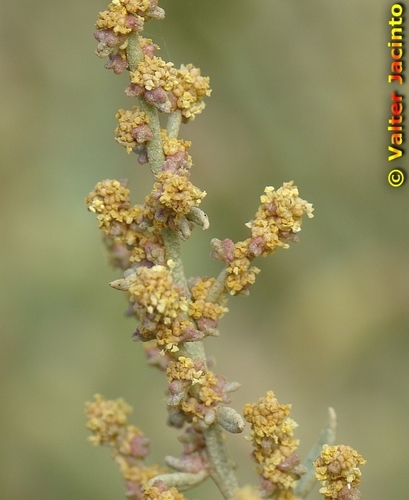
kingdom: Plantae
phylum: Tracheophyta
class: Magnoliopsida
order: Caryophyllales
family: Amaranthaceae
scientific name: Amaranthaceae
